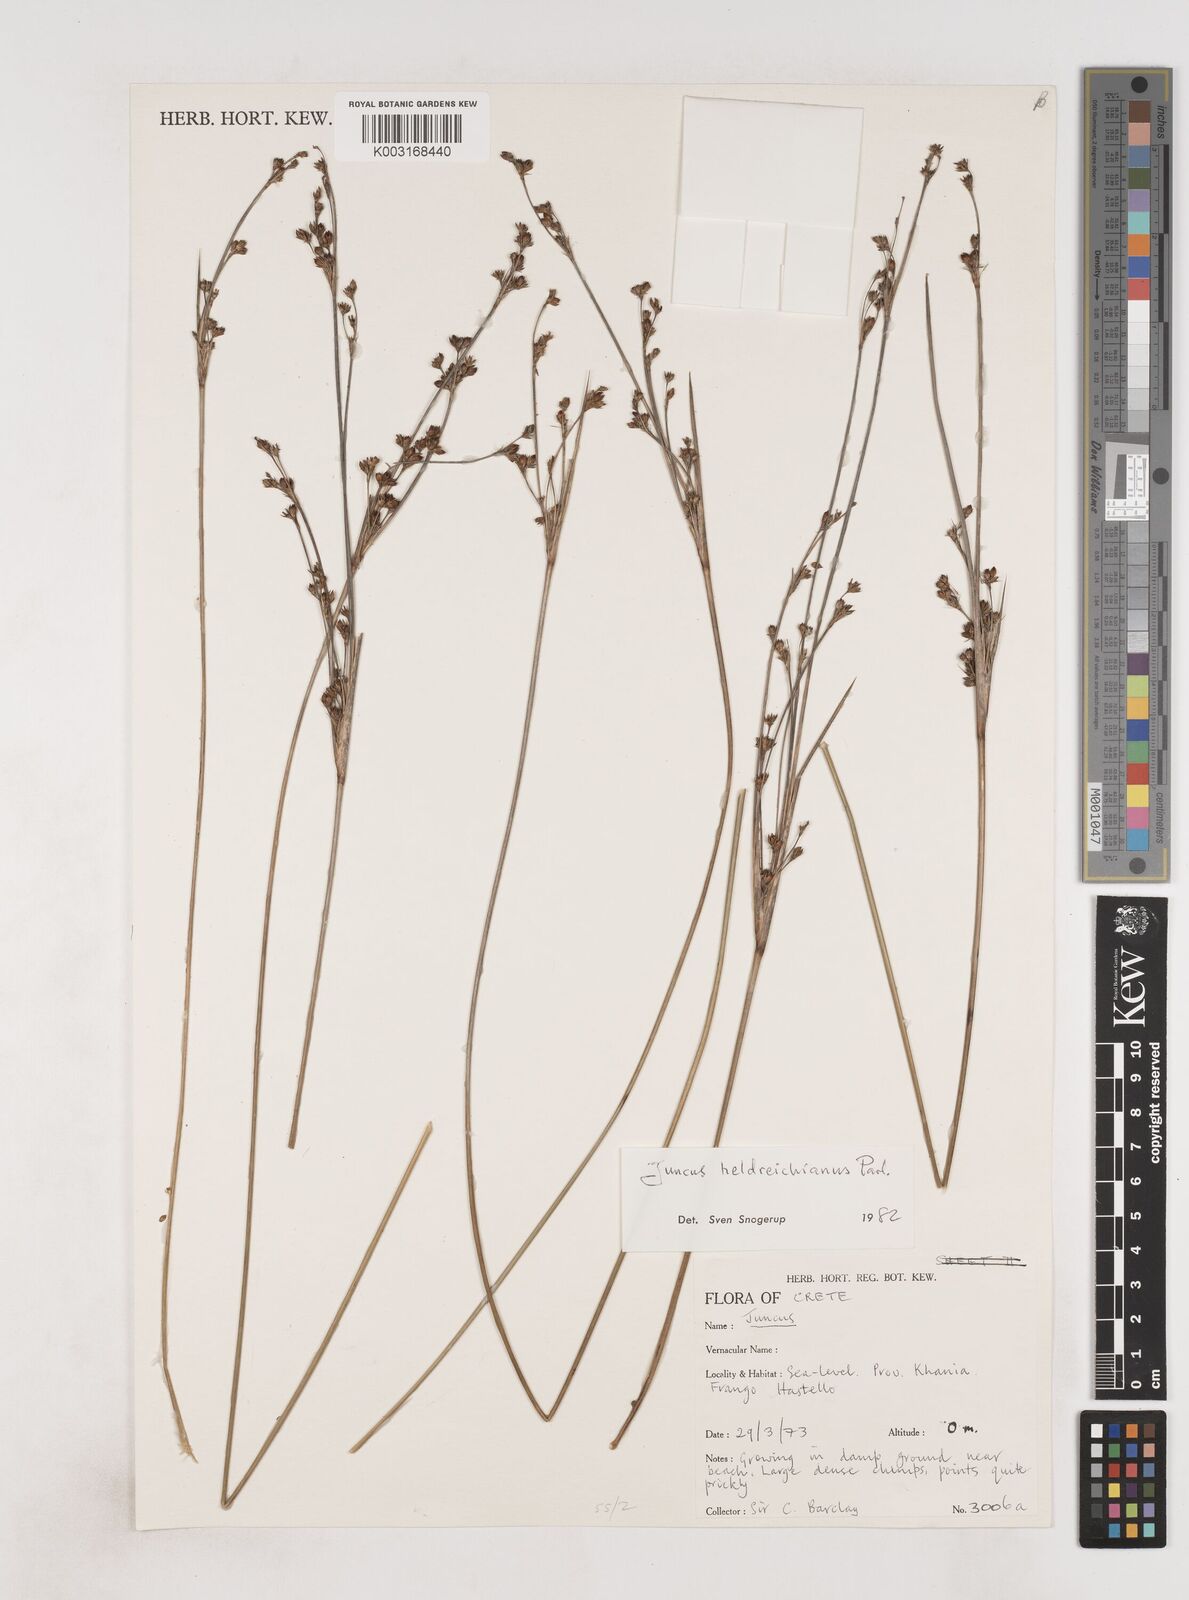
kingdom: Plantae
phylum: Tracheophyta
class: Liliopsida
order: Poales
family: Juncaceae
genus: Juncus
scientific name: Juncus heldreichianus
